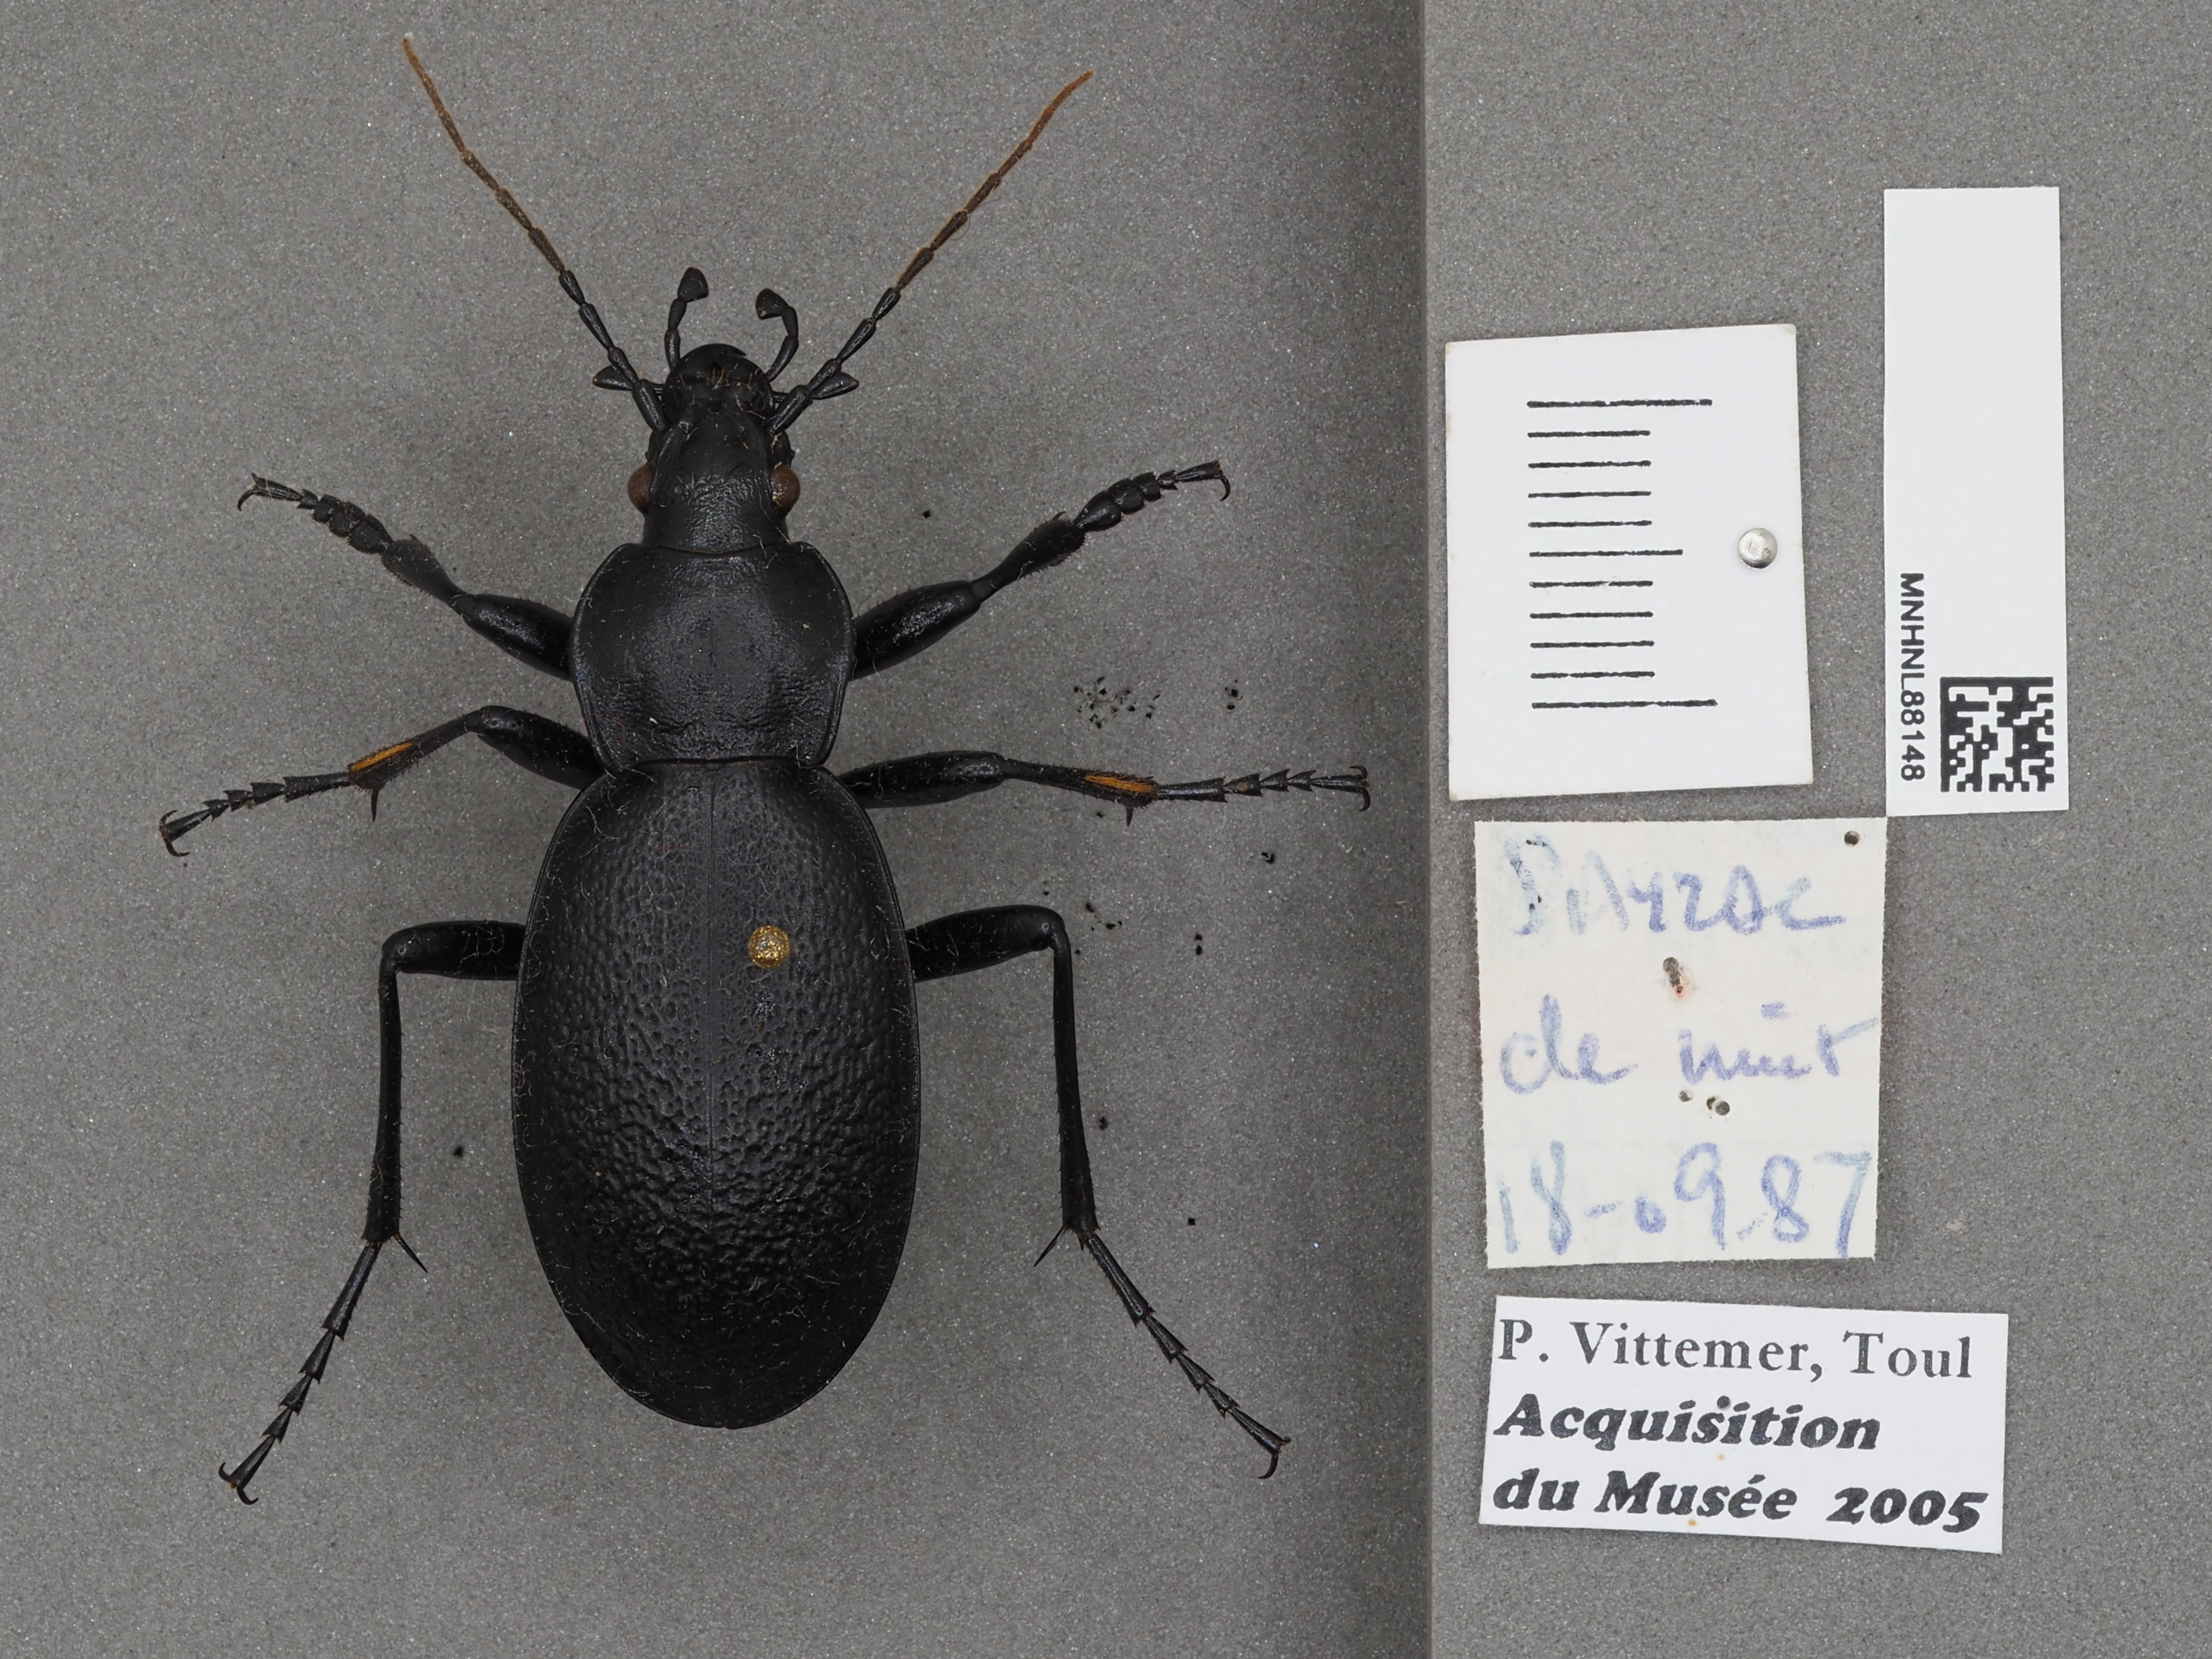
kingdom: Animalia
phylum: Arthropoda
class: Insecta
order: Coleoptera
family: Carabidae
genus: Carabus
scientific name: Carabus coriaceus
